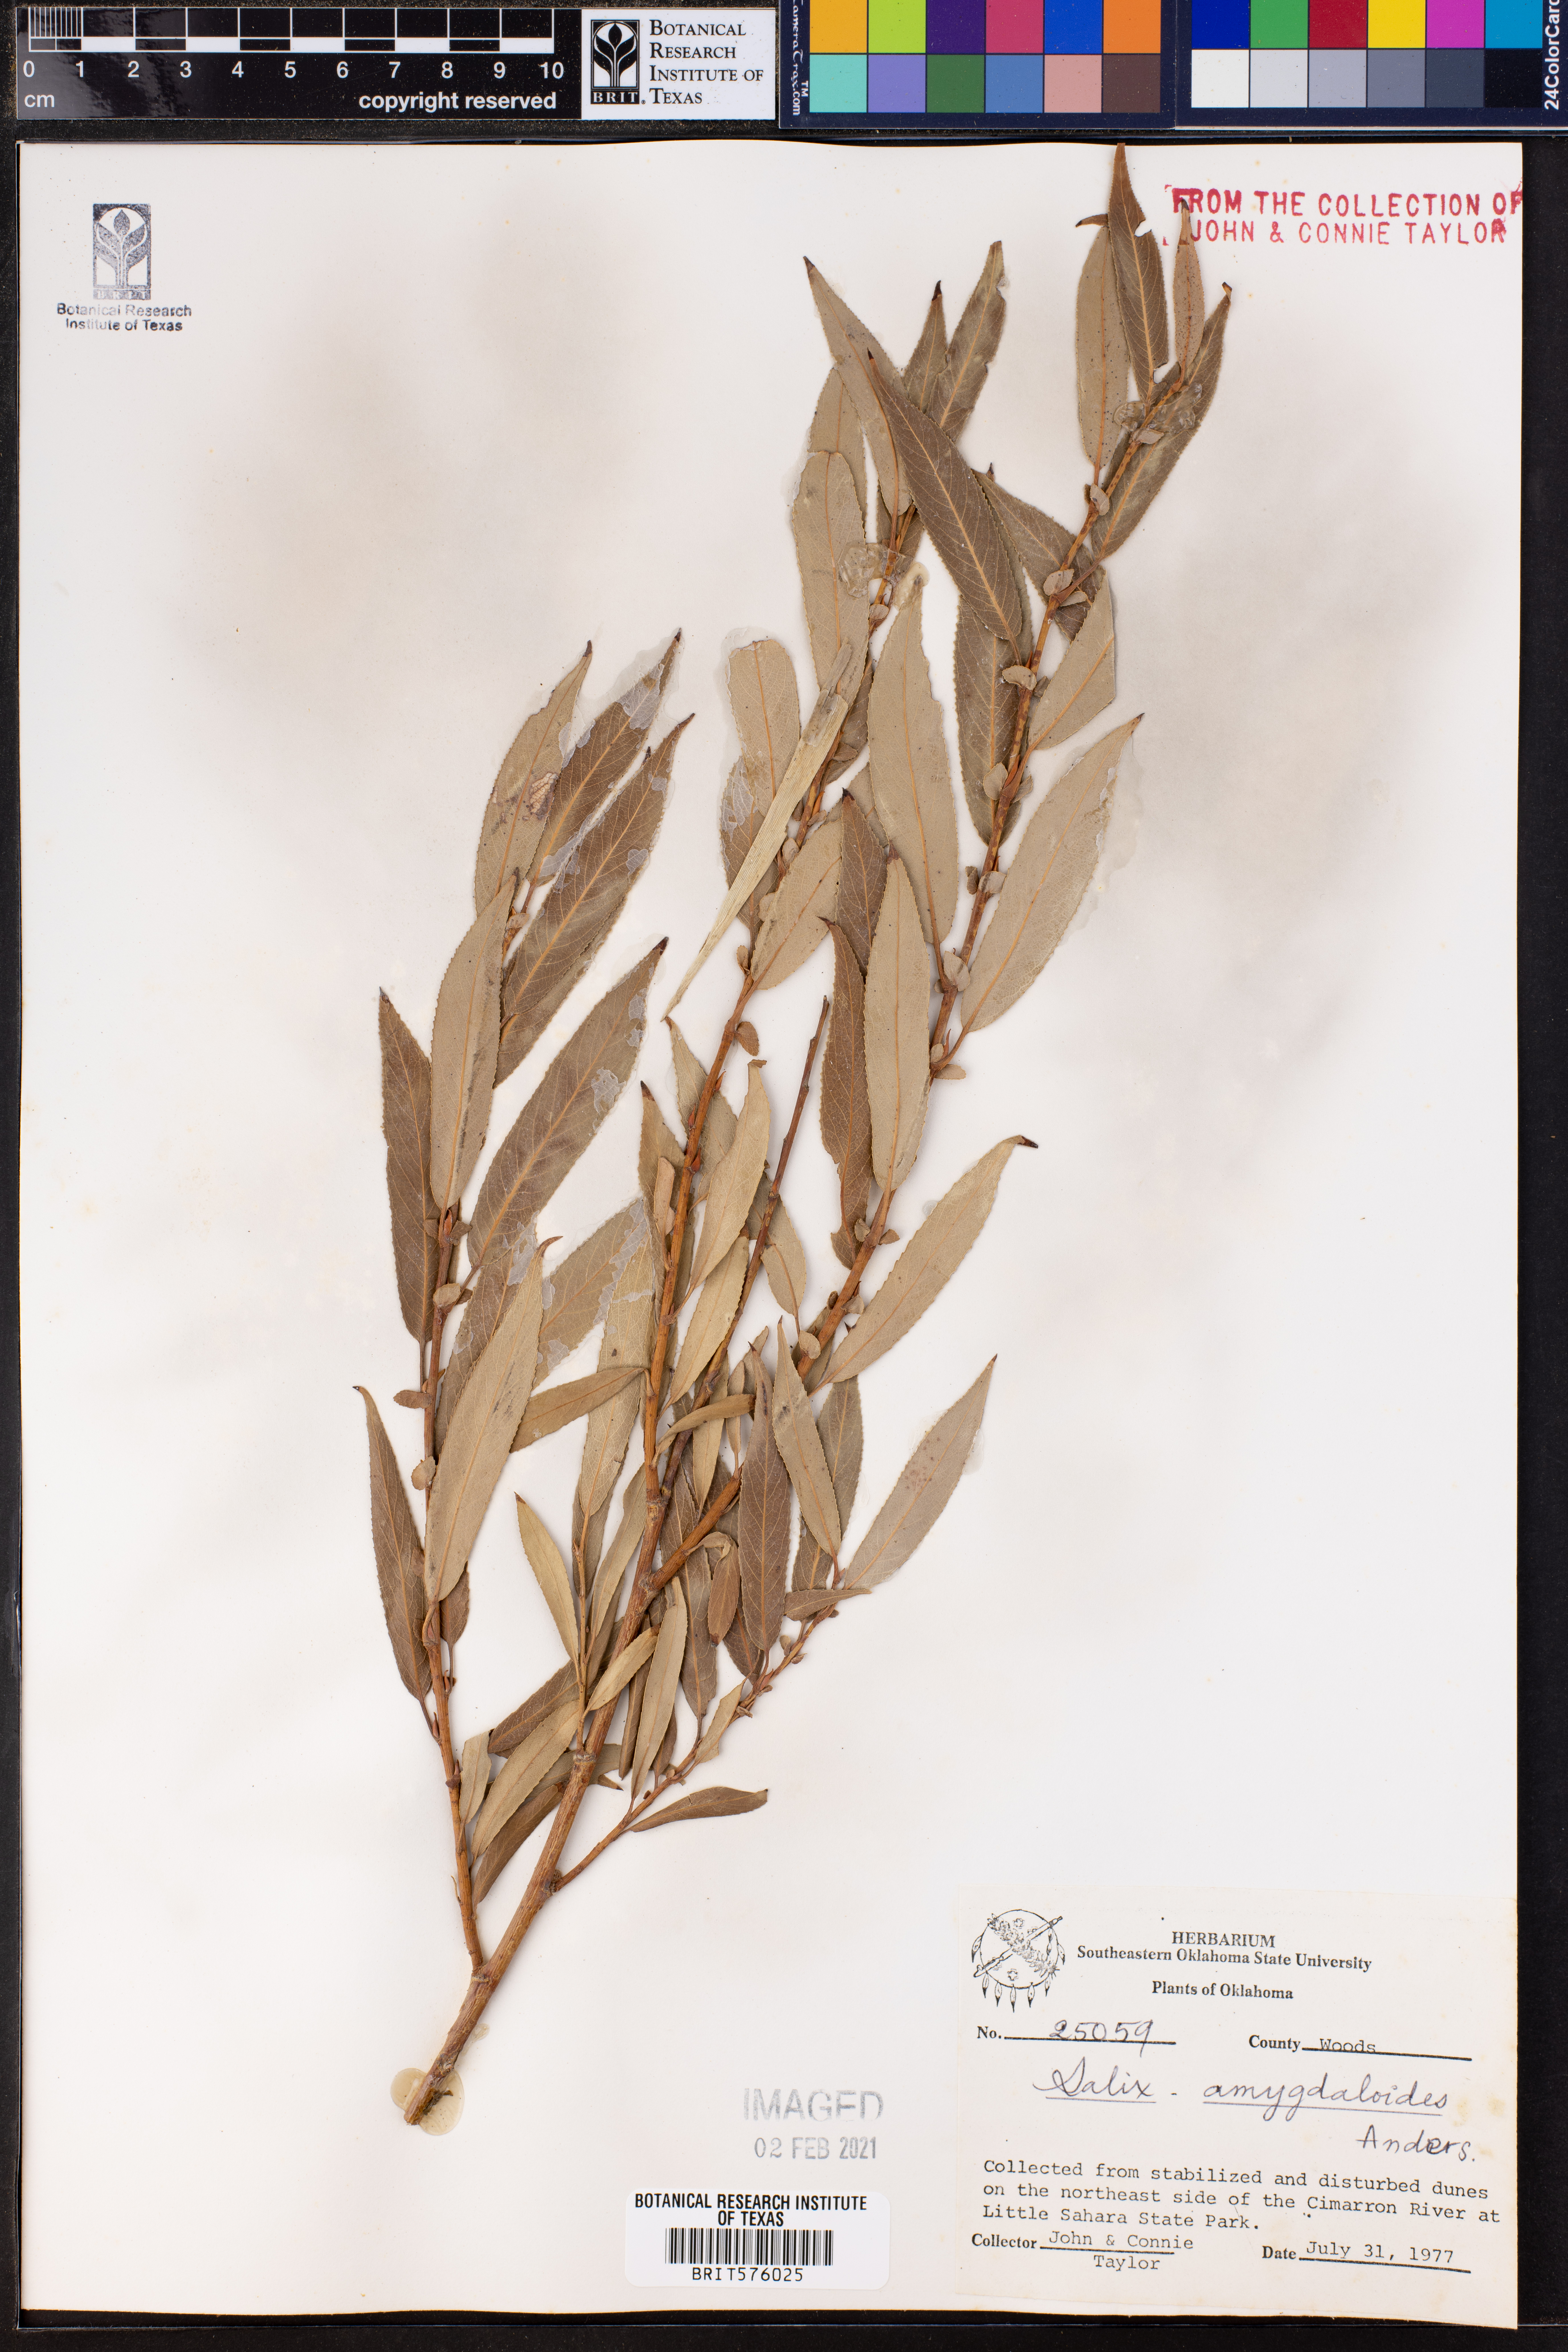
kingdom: Plantae
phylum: Tracheophyta
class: Magnoliopsida
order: Malpighiales
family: Salicaceae
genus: Salix
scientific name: Salix amygdaloides
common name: Peach leaf willow
